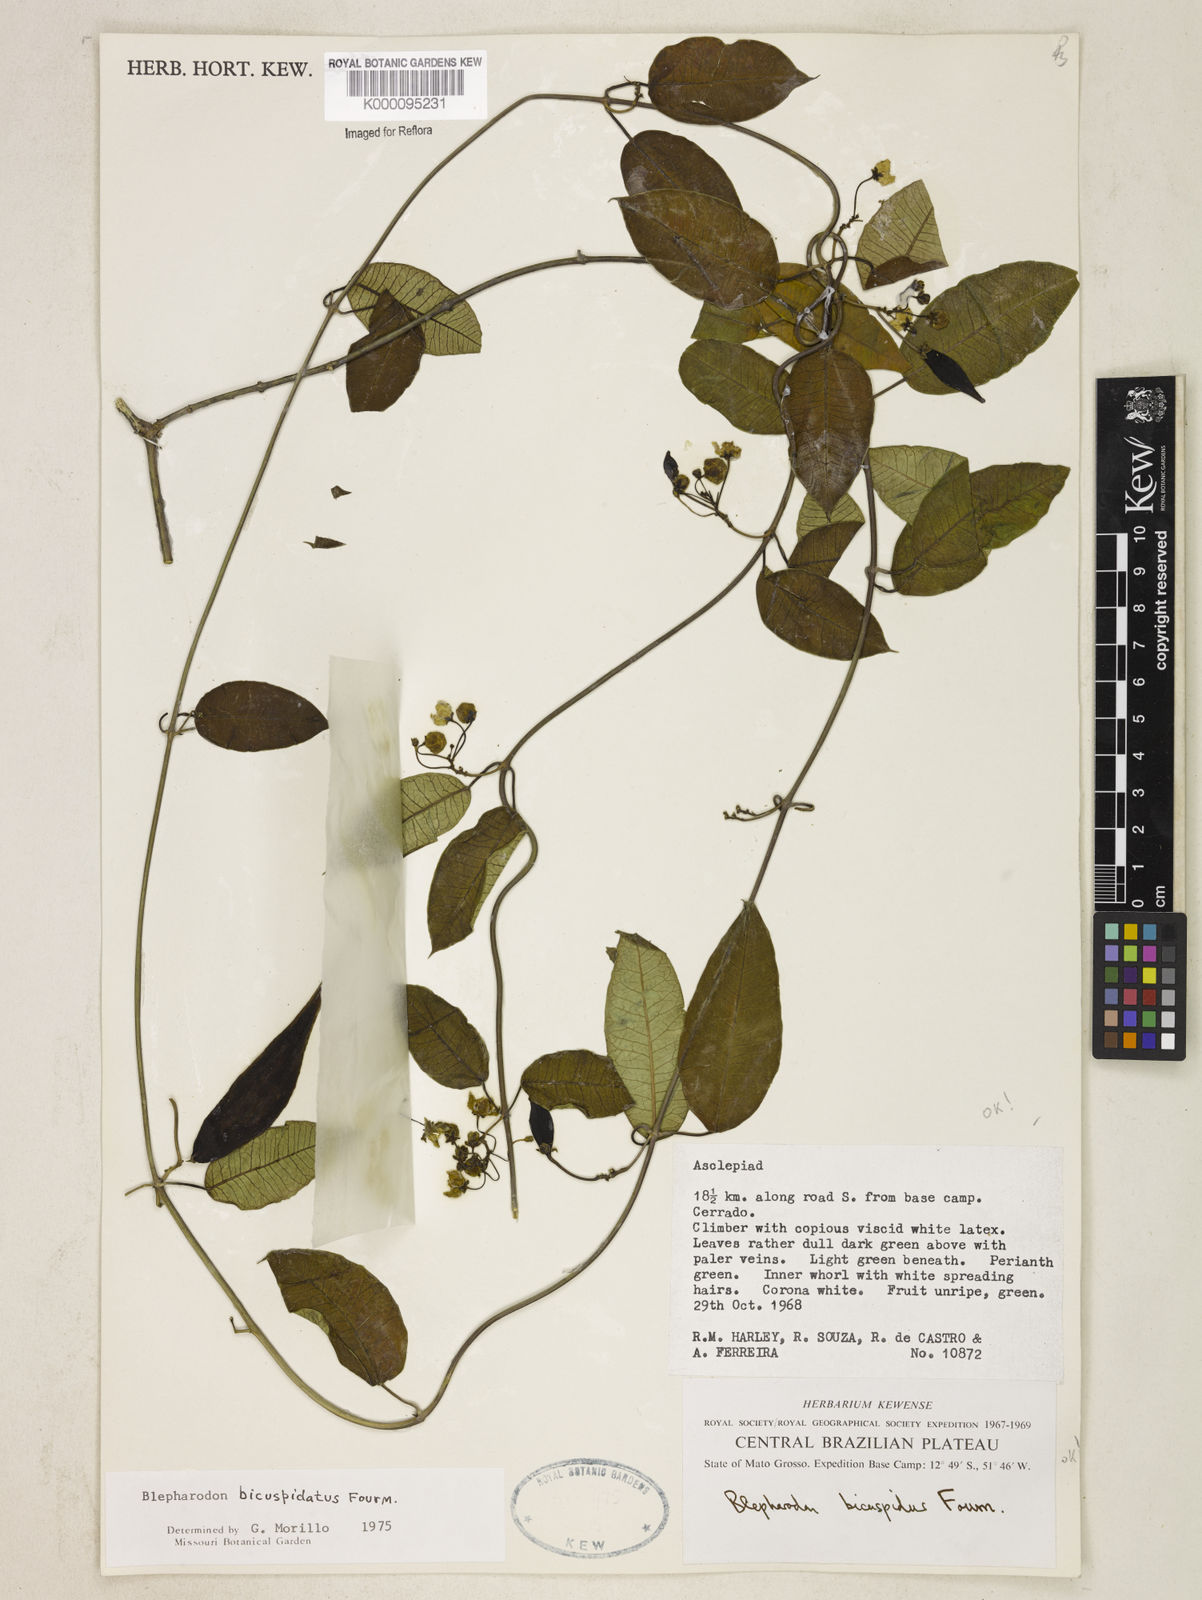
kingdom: Plantae
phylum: Tracheophyta
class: Magnoliopsida
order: Gentianales
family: Apocynaceae
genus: Blepharodon
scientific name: Blepharodon bicuspidatum
